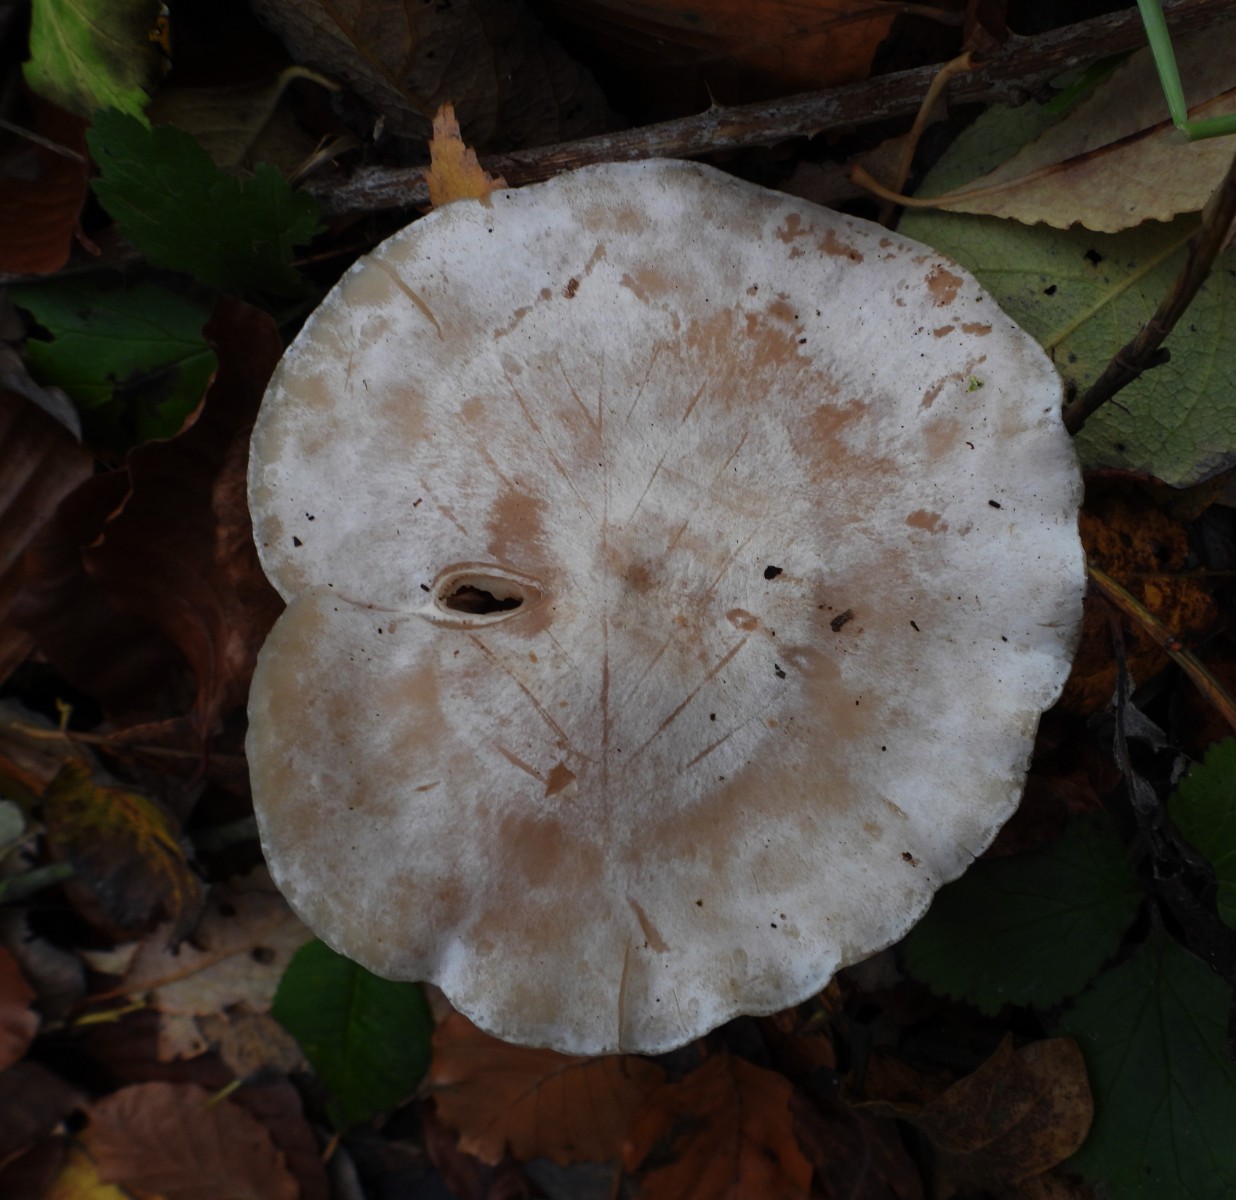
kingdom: Fungi
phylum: Basidiomycota
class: Agaricomycetes
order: Agaricales
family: Tricholomataceae
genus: Clitocybe
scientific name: Clitocybe phyllophila
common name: løv-tragthat
